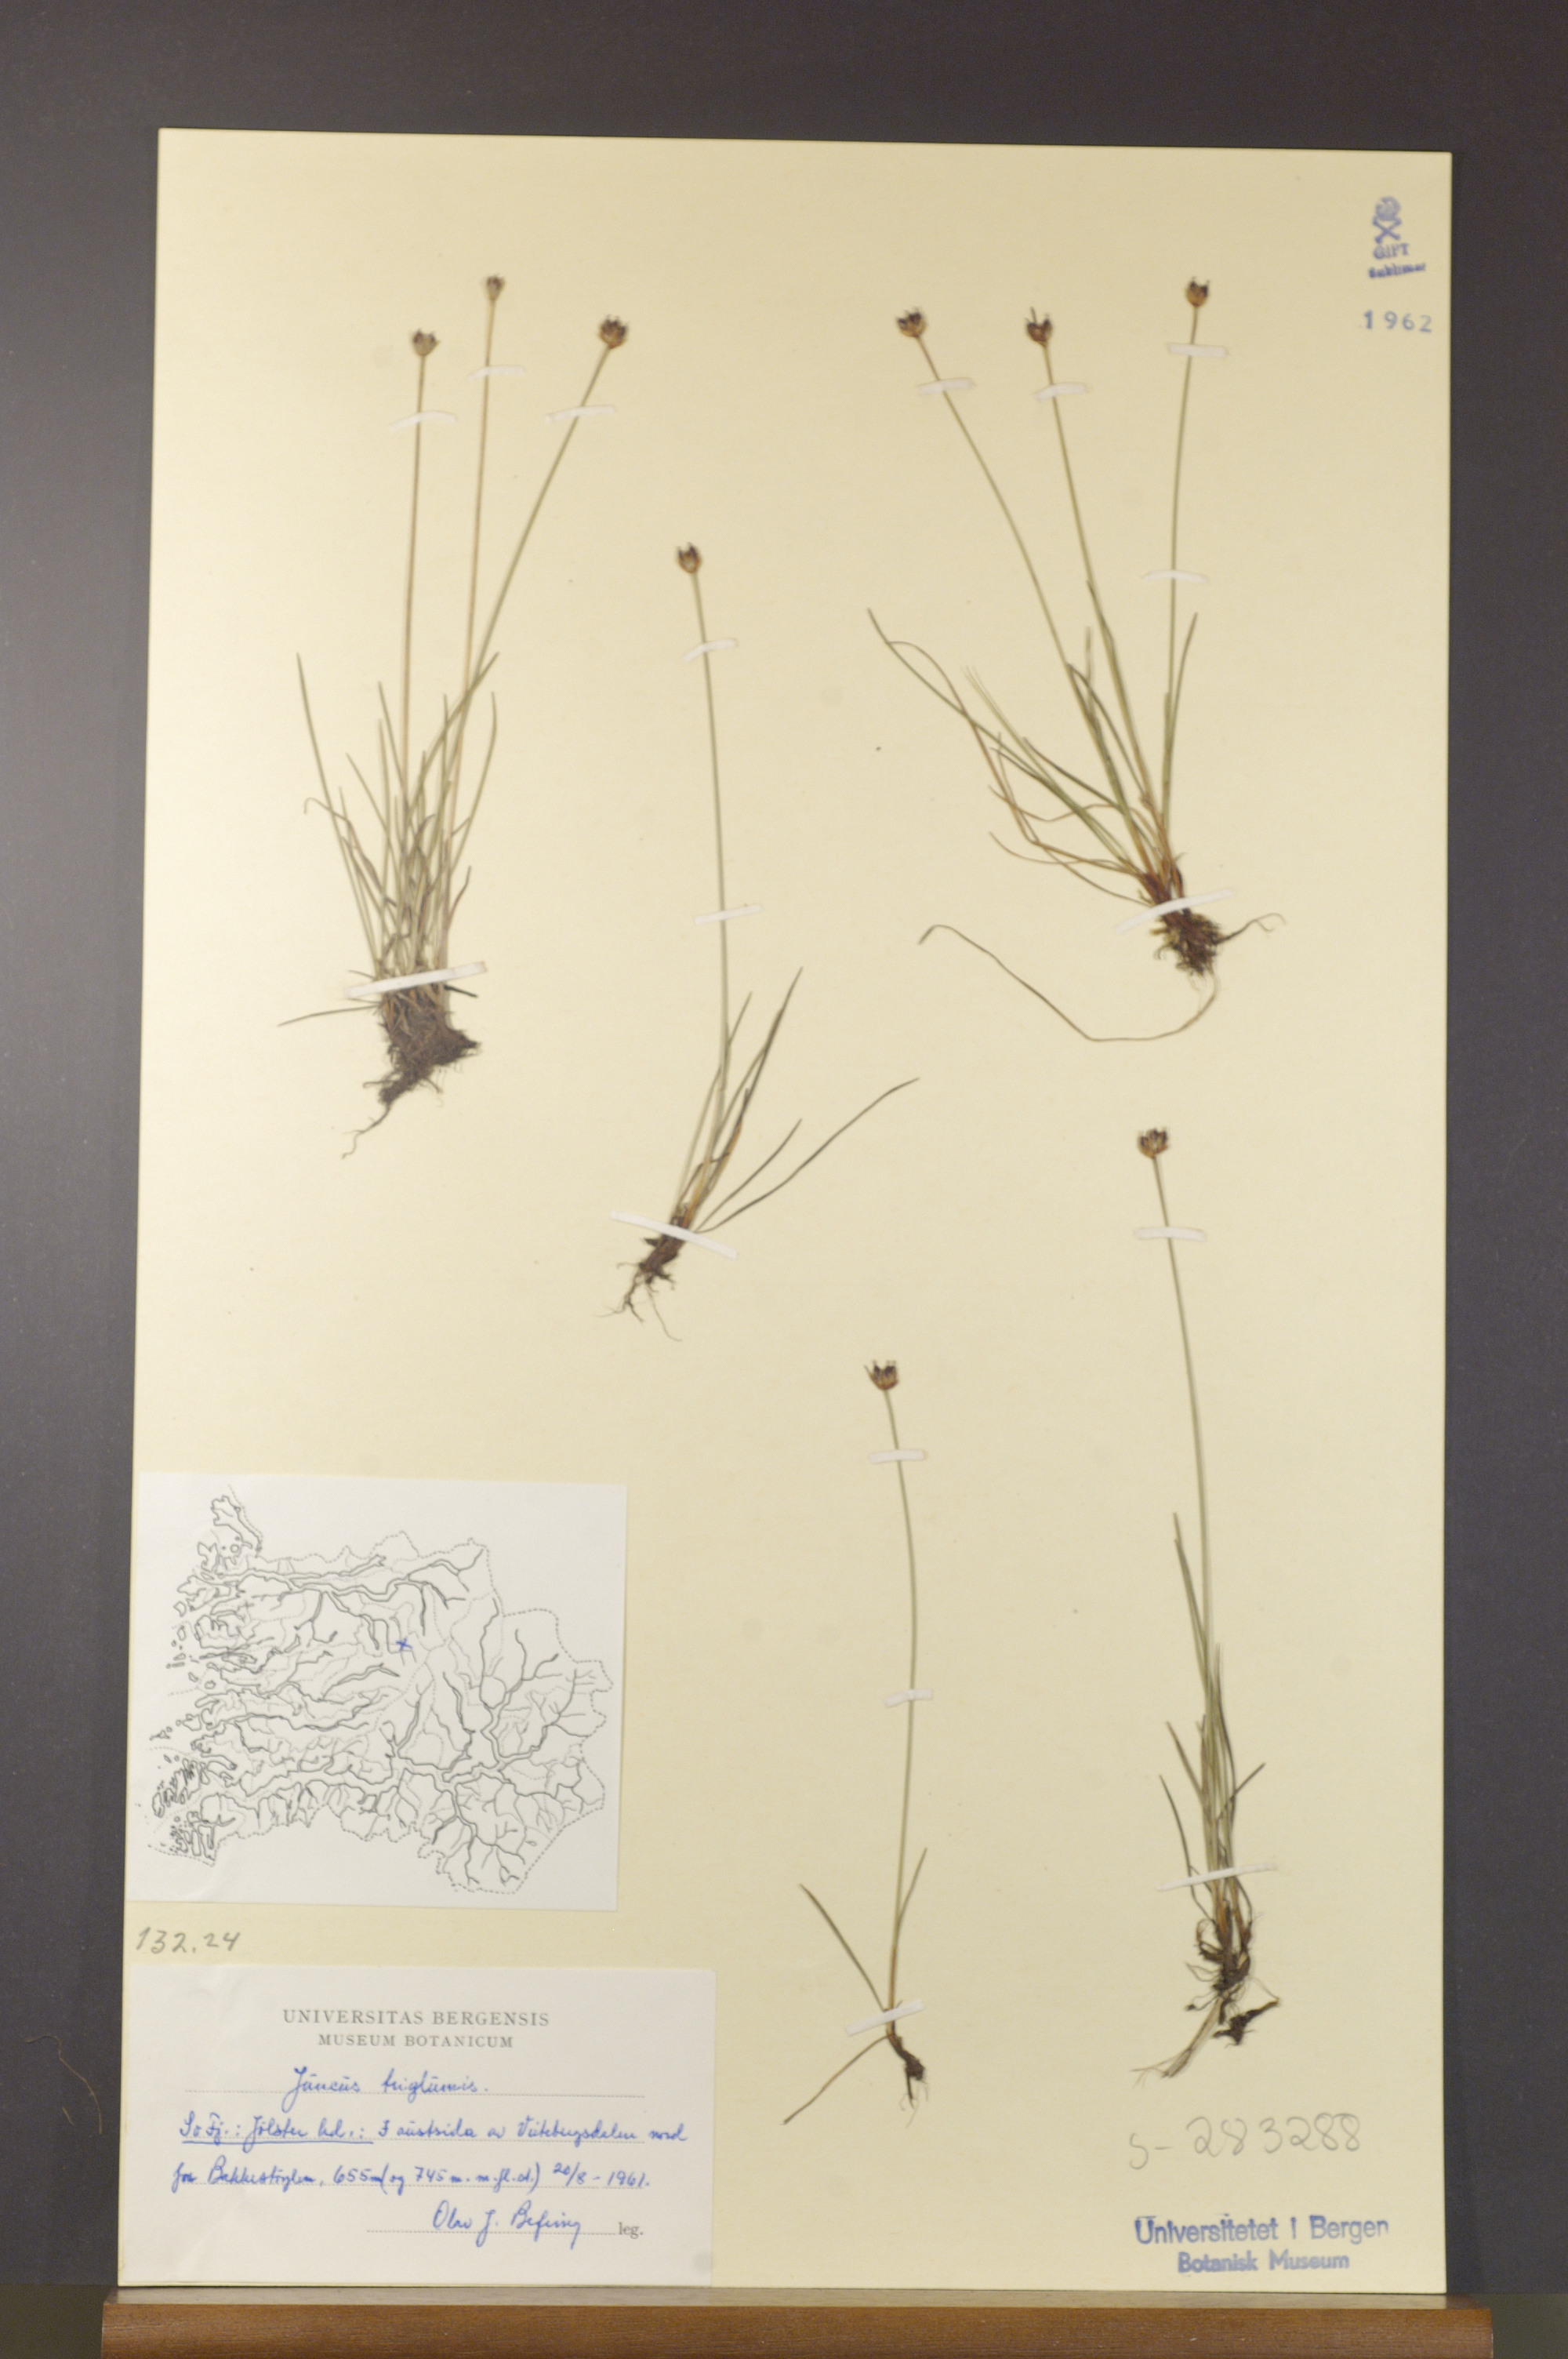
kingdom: Plantae
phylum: Tracheophyta
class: Liliopsida
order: Poales
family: Juncaceae
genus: Juncus
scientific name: Juncus triglumis
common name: Three-flowered rush
